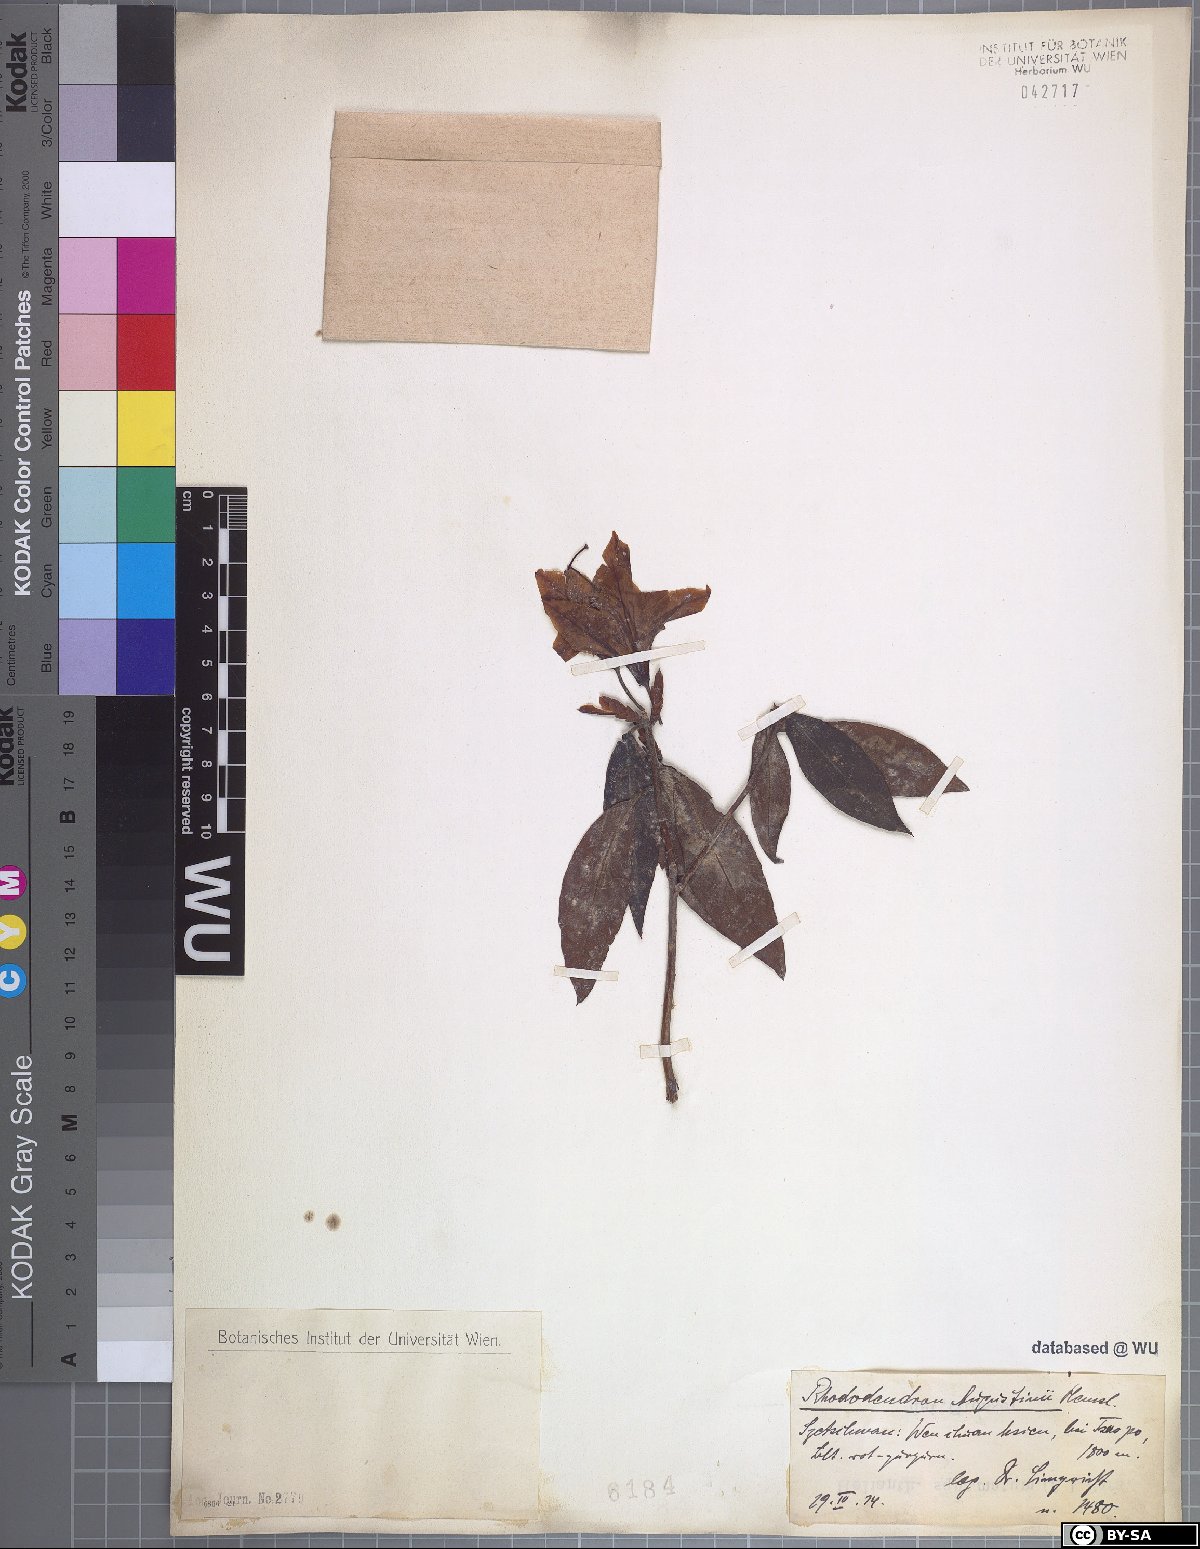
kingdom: Plantae
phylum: Tracheophyta
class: Magnoliopsida
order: Ericales
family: Ericaceae
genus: Rhododendron
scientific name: Rhododendron augustinii
